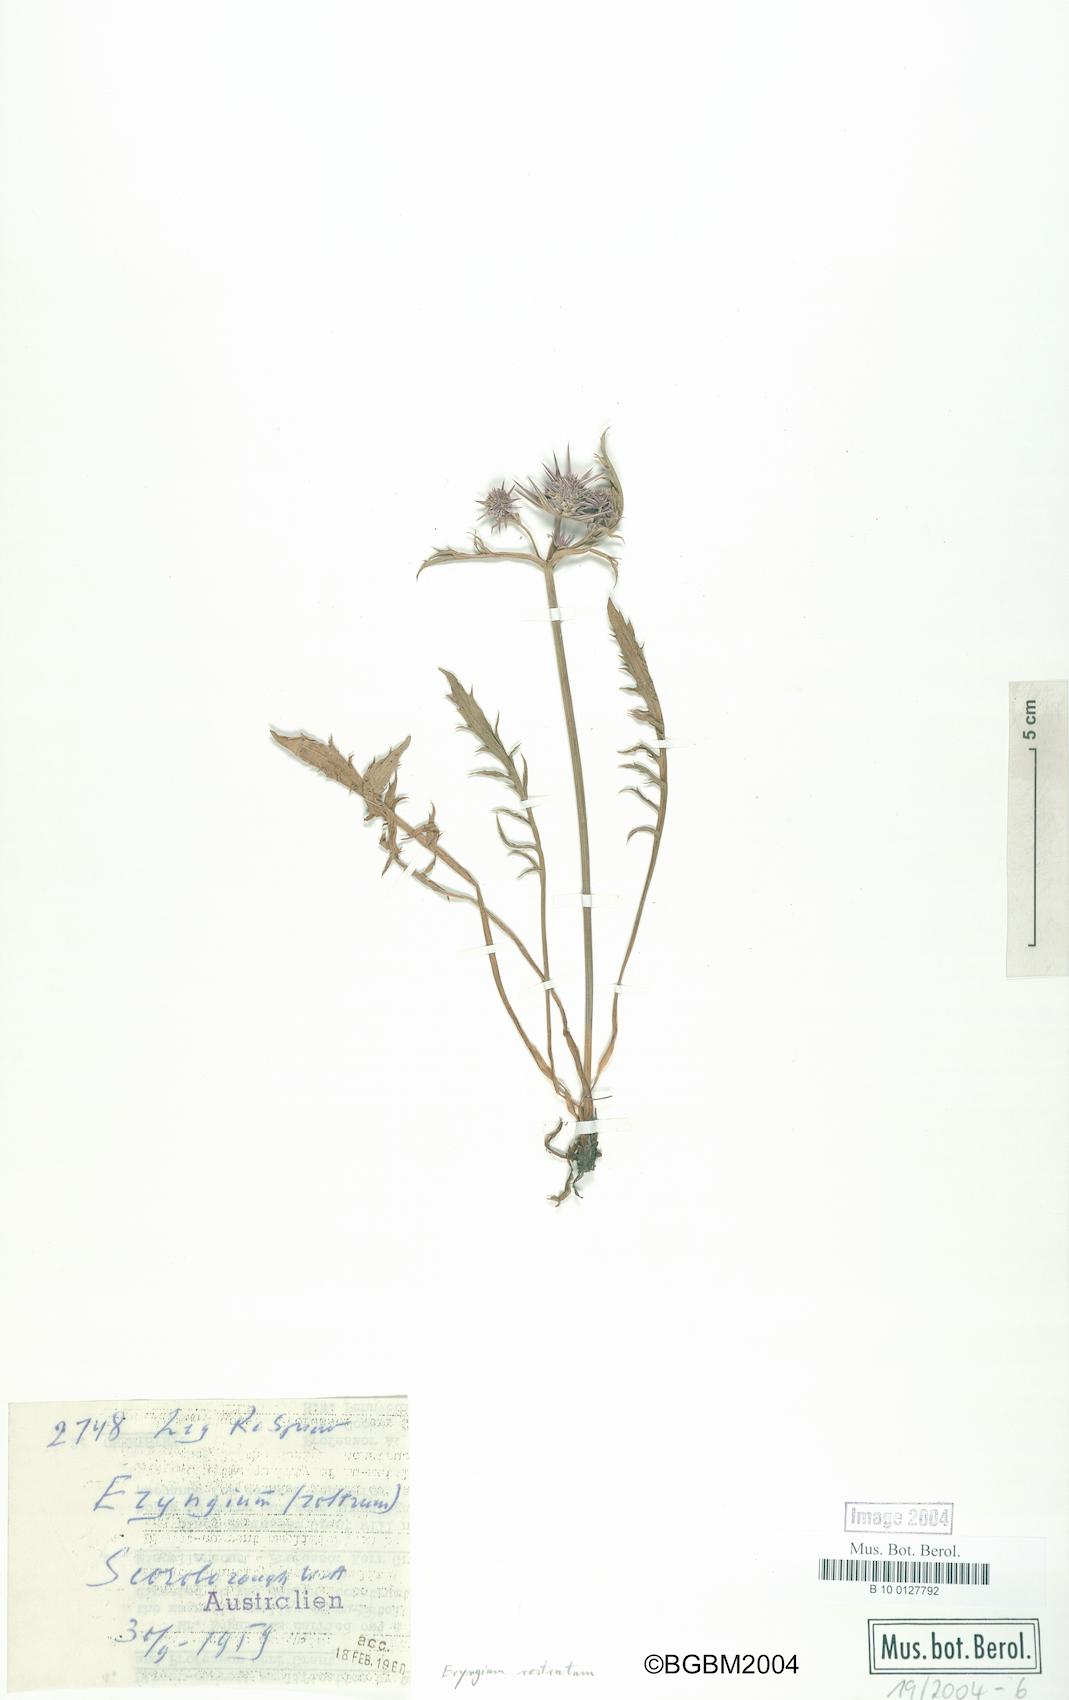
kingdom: Plantae
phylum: Tracheophyta
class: Magnoliopsida
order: Apiales
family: Apiaceae
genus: Eryngium
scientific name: Eryngium rostratum
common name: Blue eryngo
